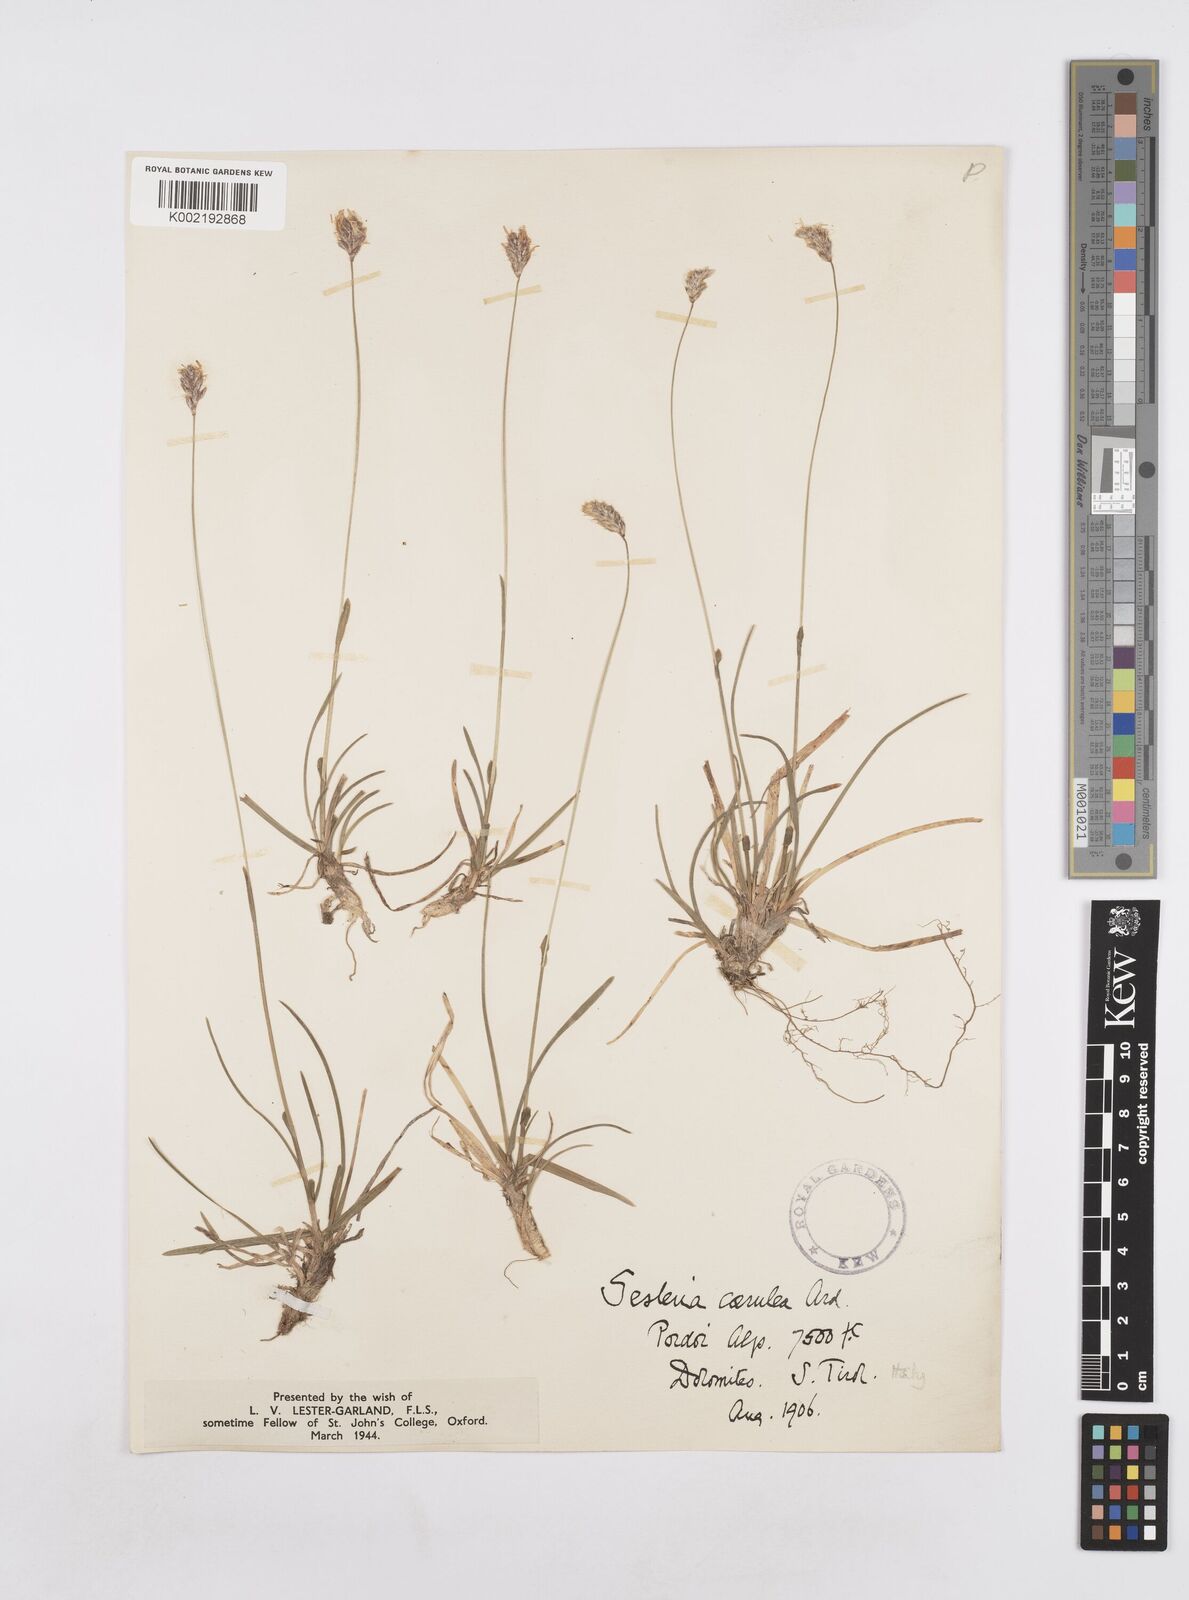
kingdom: Plantae
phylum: Tracheophyta
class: Liliopsida
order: Poales
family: Poaceae
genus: Sesleria
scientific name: Sesleria albicans
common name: Blue moor-grass
